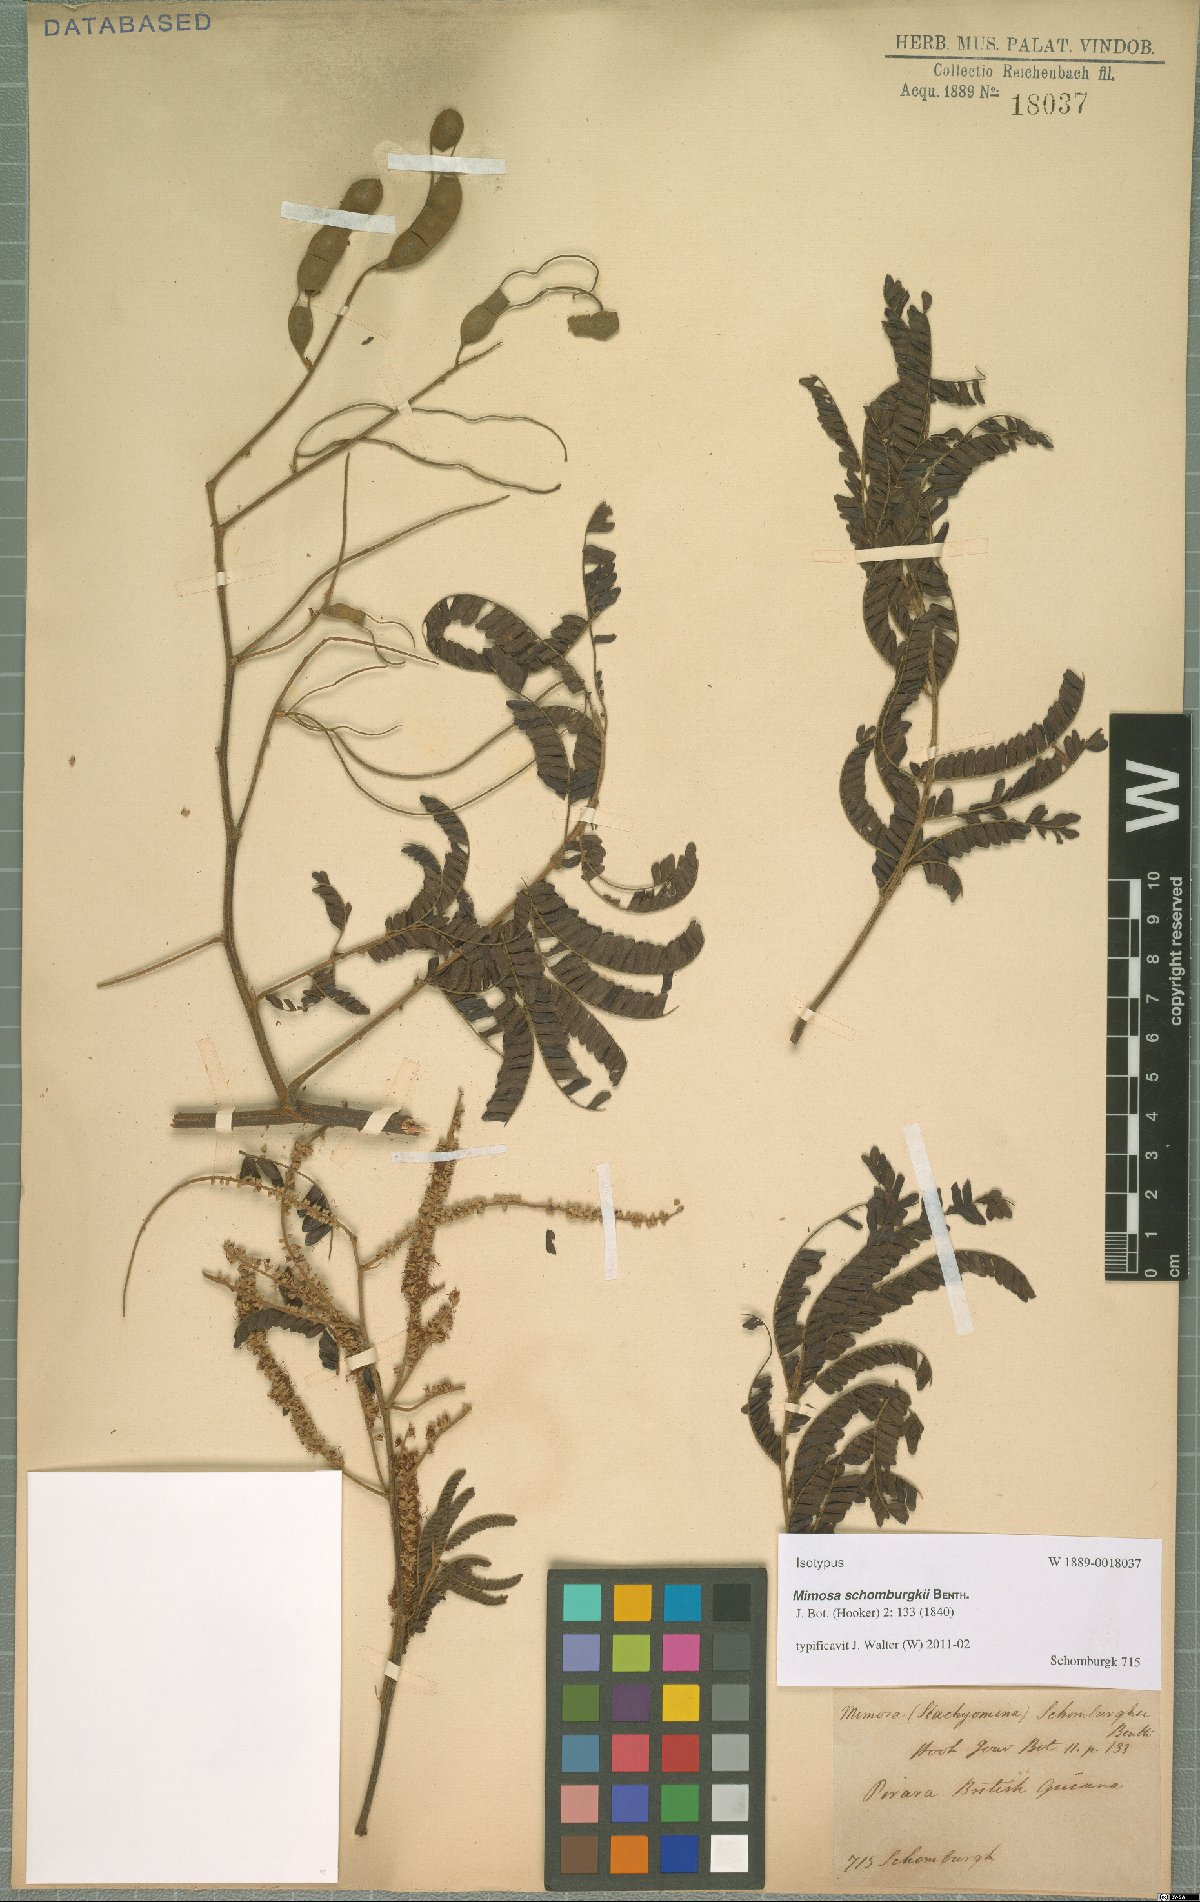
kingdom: Plantae
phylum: Tracheophyta
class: Magnoliopsida
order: Fabales
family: Fabaceae
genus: Mimosa
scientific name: Mimosa schomburgkii
